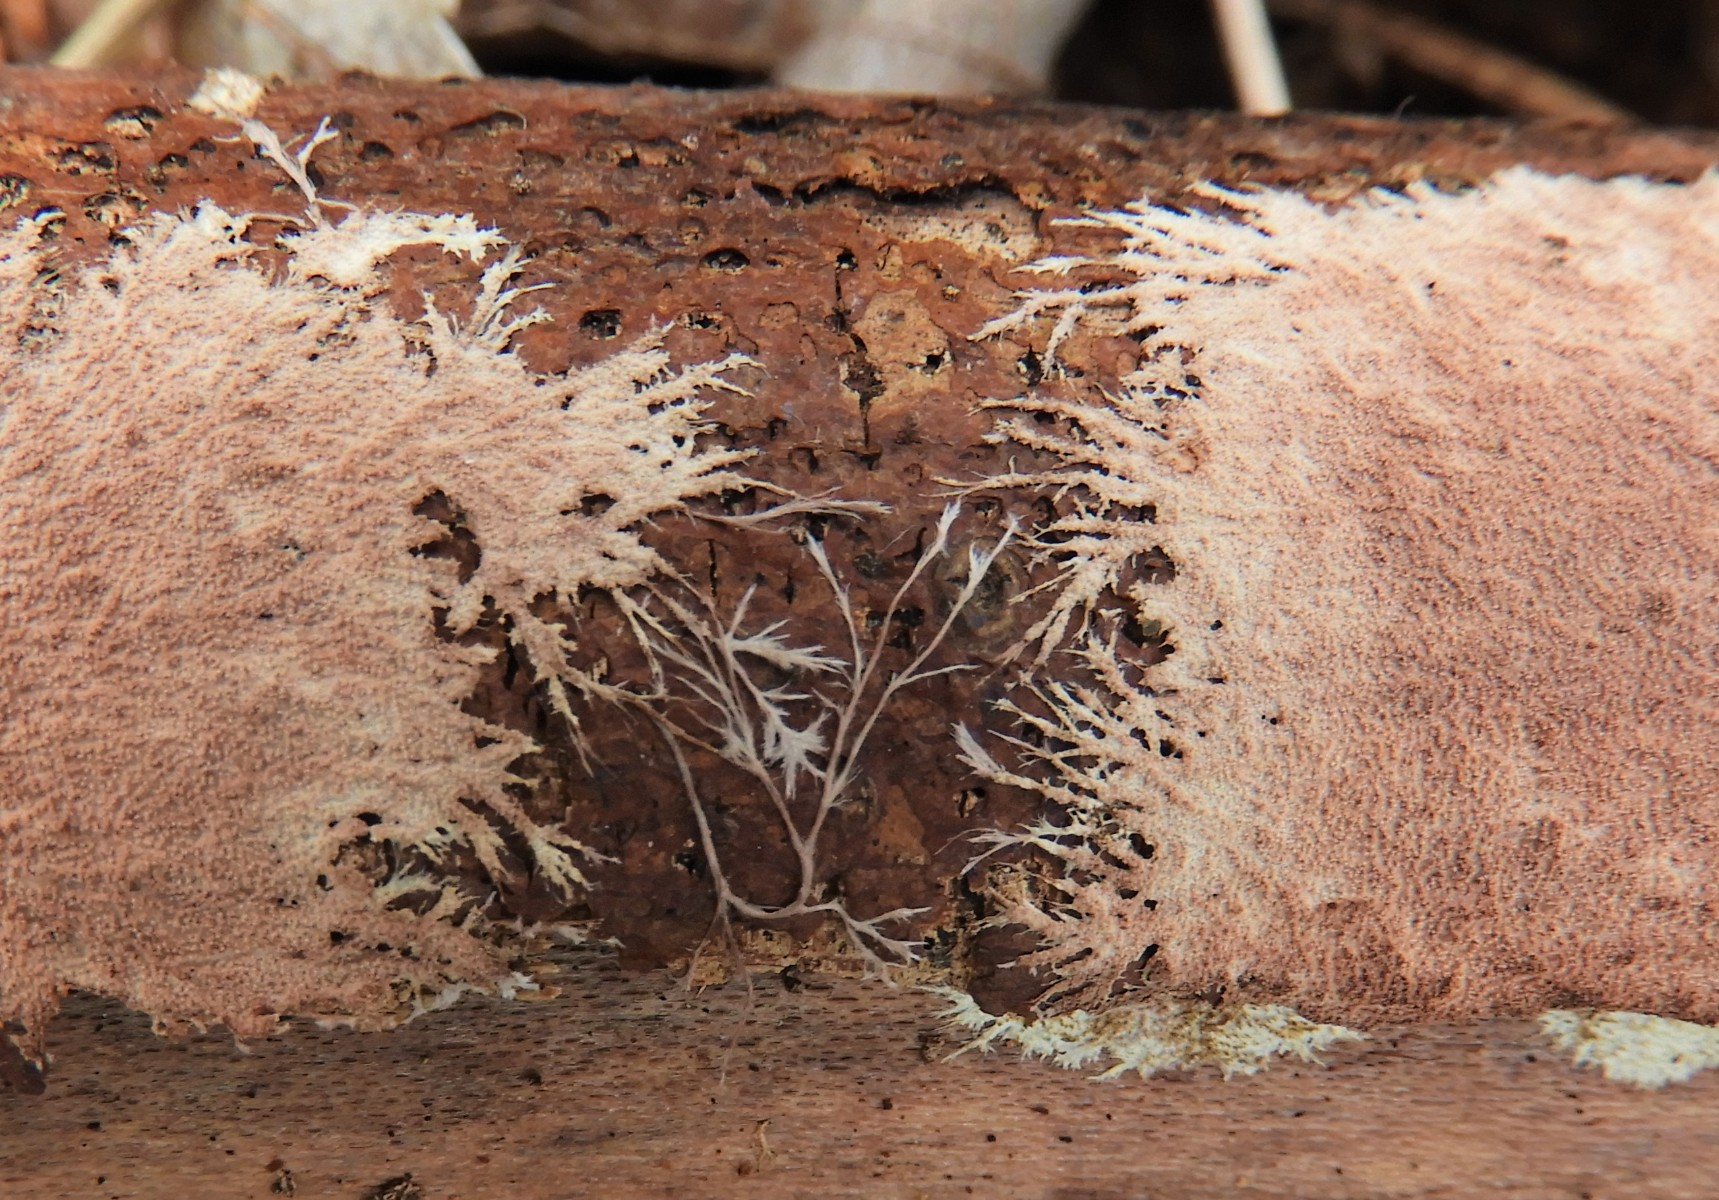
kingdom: Fungi
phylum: Basidiomycota
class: Agaricomycetes
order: Polyporales
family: Steccherinaceae
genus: Steccherinum
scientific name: Steccherinum fimbriatum
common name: trådet skønpig
